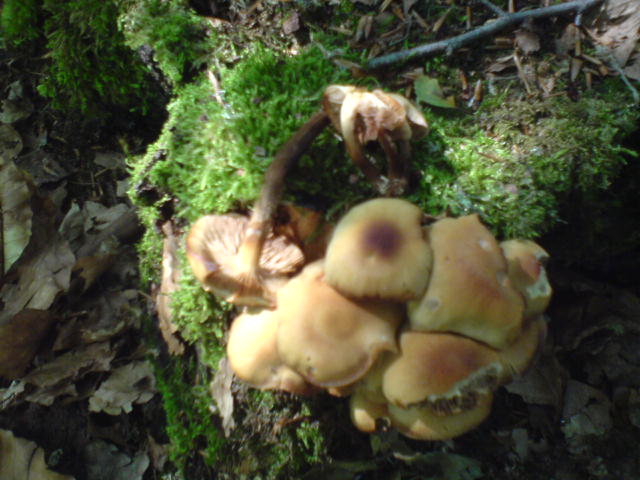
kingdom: Fungi
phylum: Basidiomycota
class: Agaricomycetes
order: Agaricales
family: Strophariaceae
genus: Kuehneromyces
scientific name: Kuehneromyces mutabilis
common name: foranderlig skælhat
